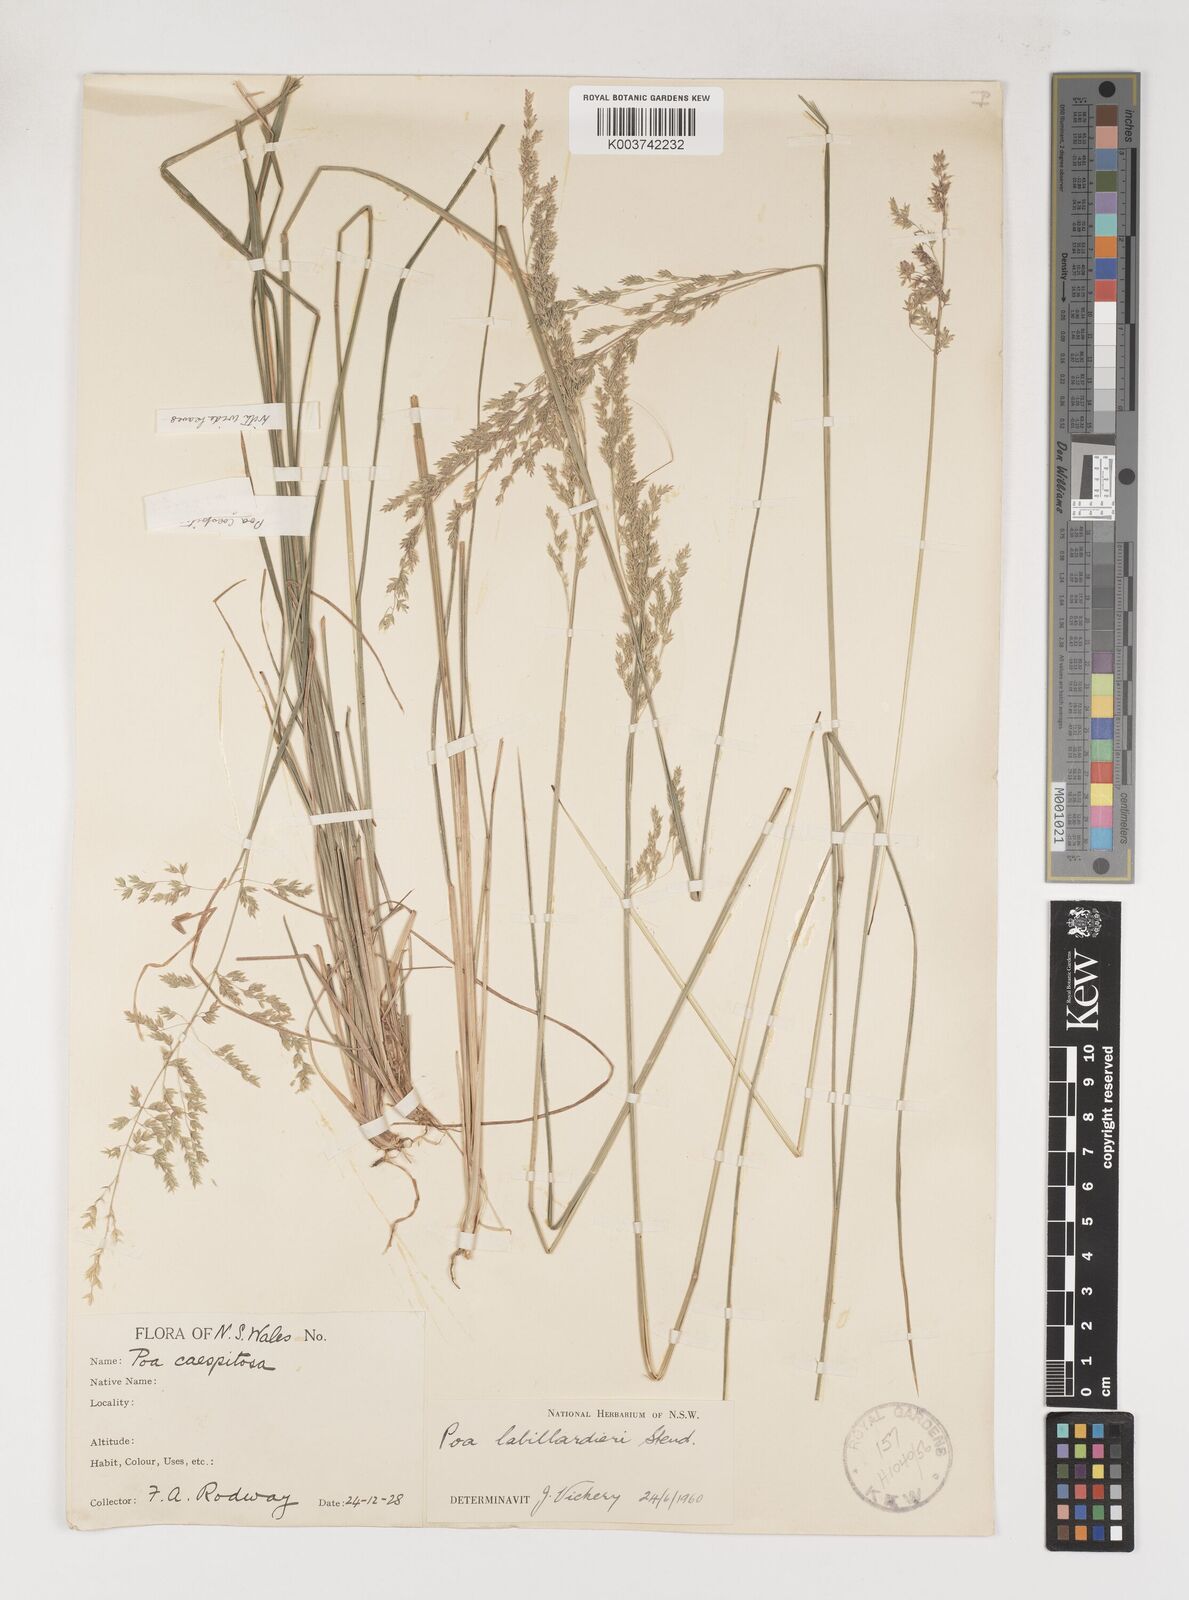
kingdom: Plantae
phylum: Tracheophyta
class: Liliopsida
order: Poales
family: Poaceae
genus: Poa
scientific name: Poa labillardierei
